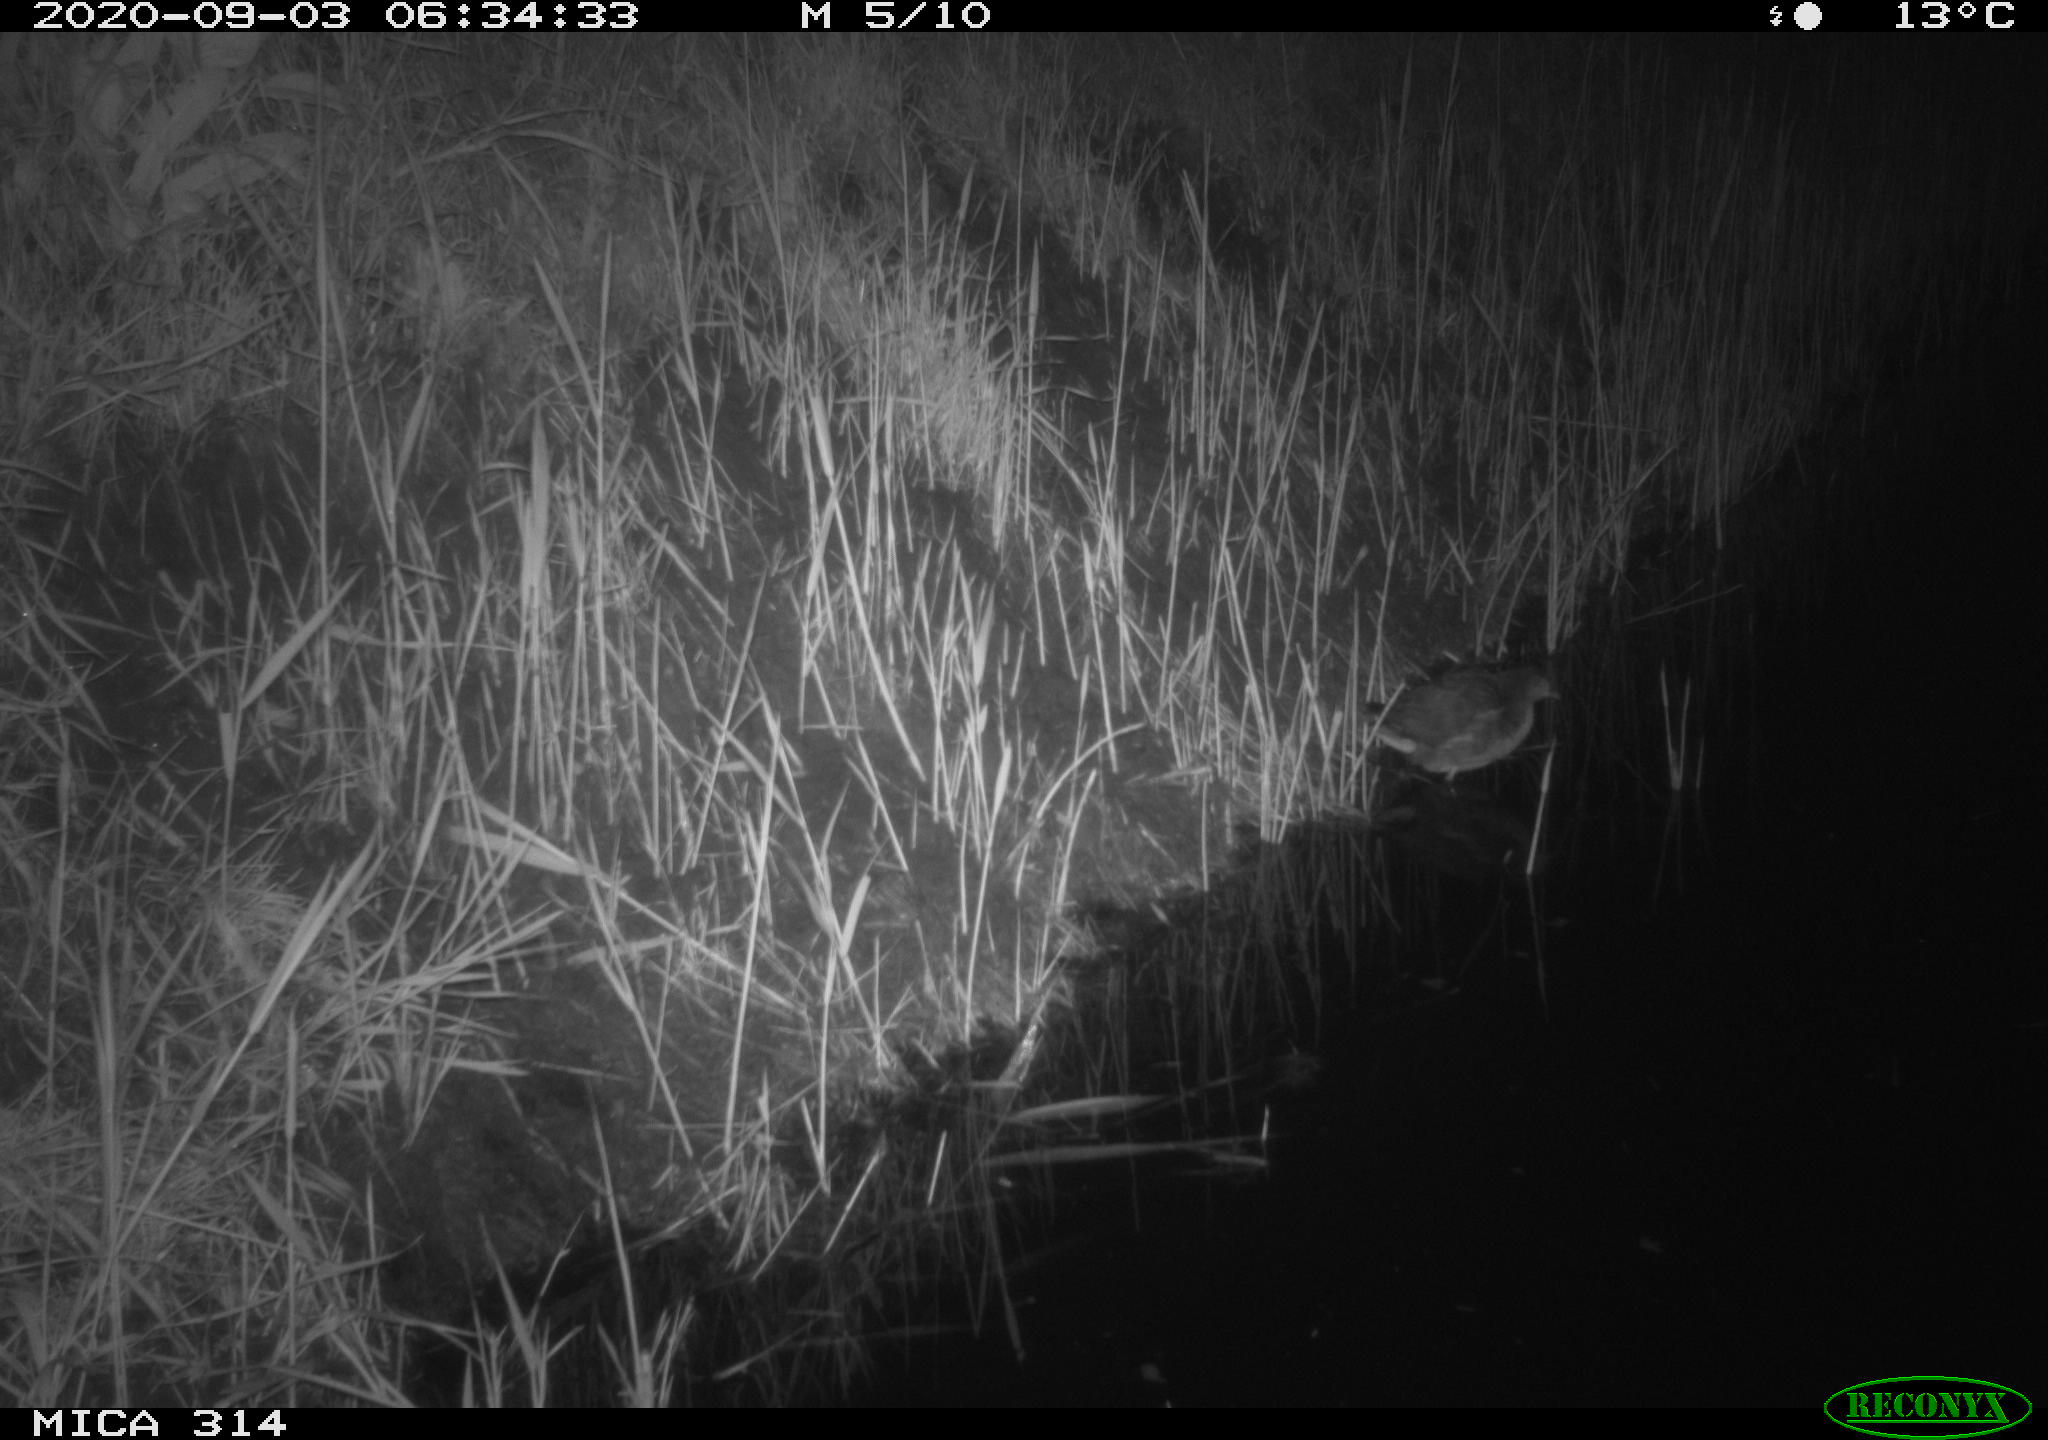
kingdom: Animalia
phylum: Chordata
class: Aves
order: Gruiformes
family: Rallidae
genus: Gallinula
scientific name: Gallinula chloropus
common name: Common moorhen
